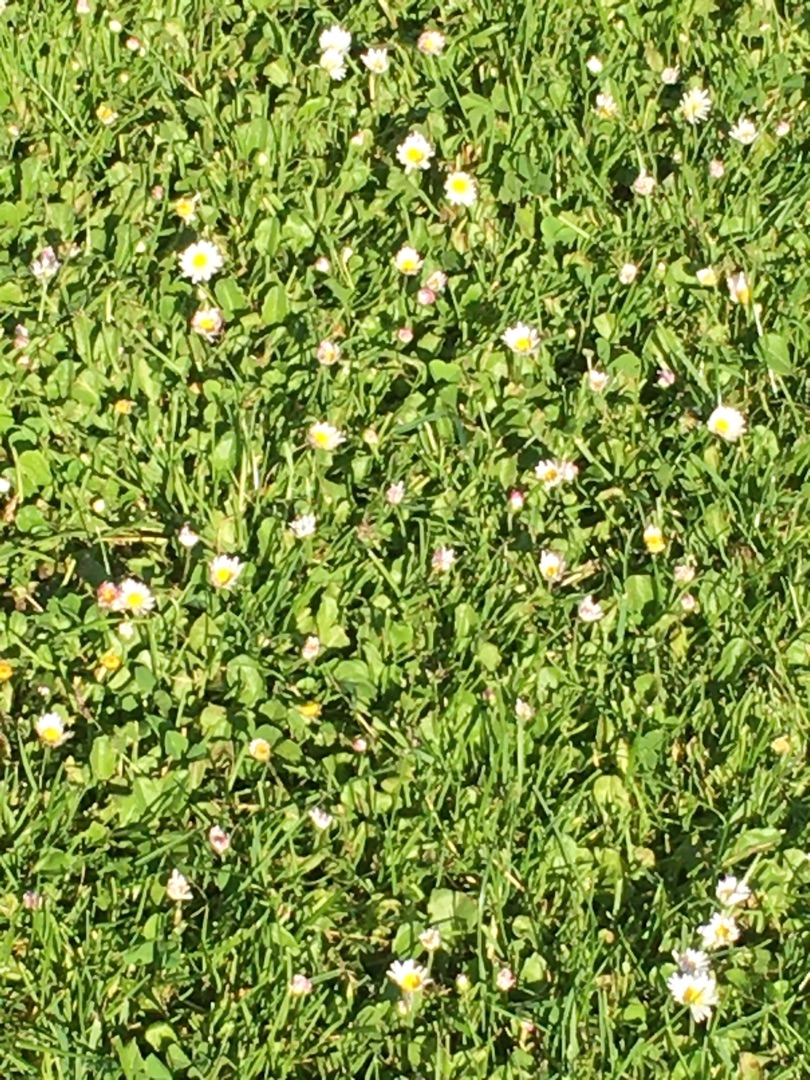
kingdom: Plantae
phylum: Tracheophyta
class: Magnoliopsida
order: Asterales
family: Asteraceae
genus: Bellis
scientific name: Bellis perennis
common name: Tusindfryd
